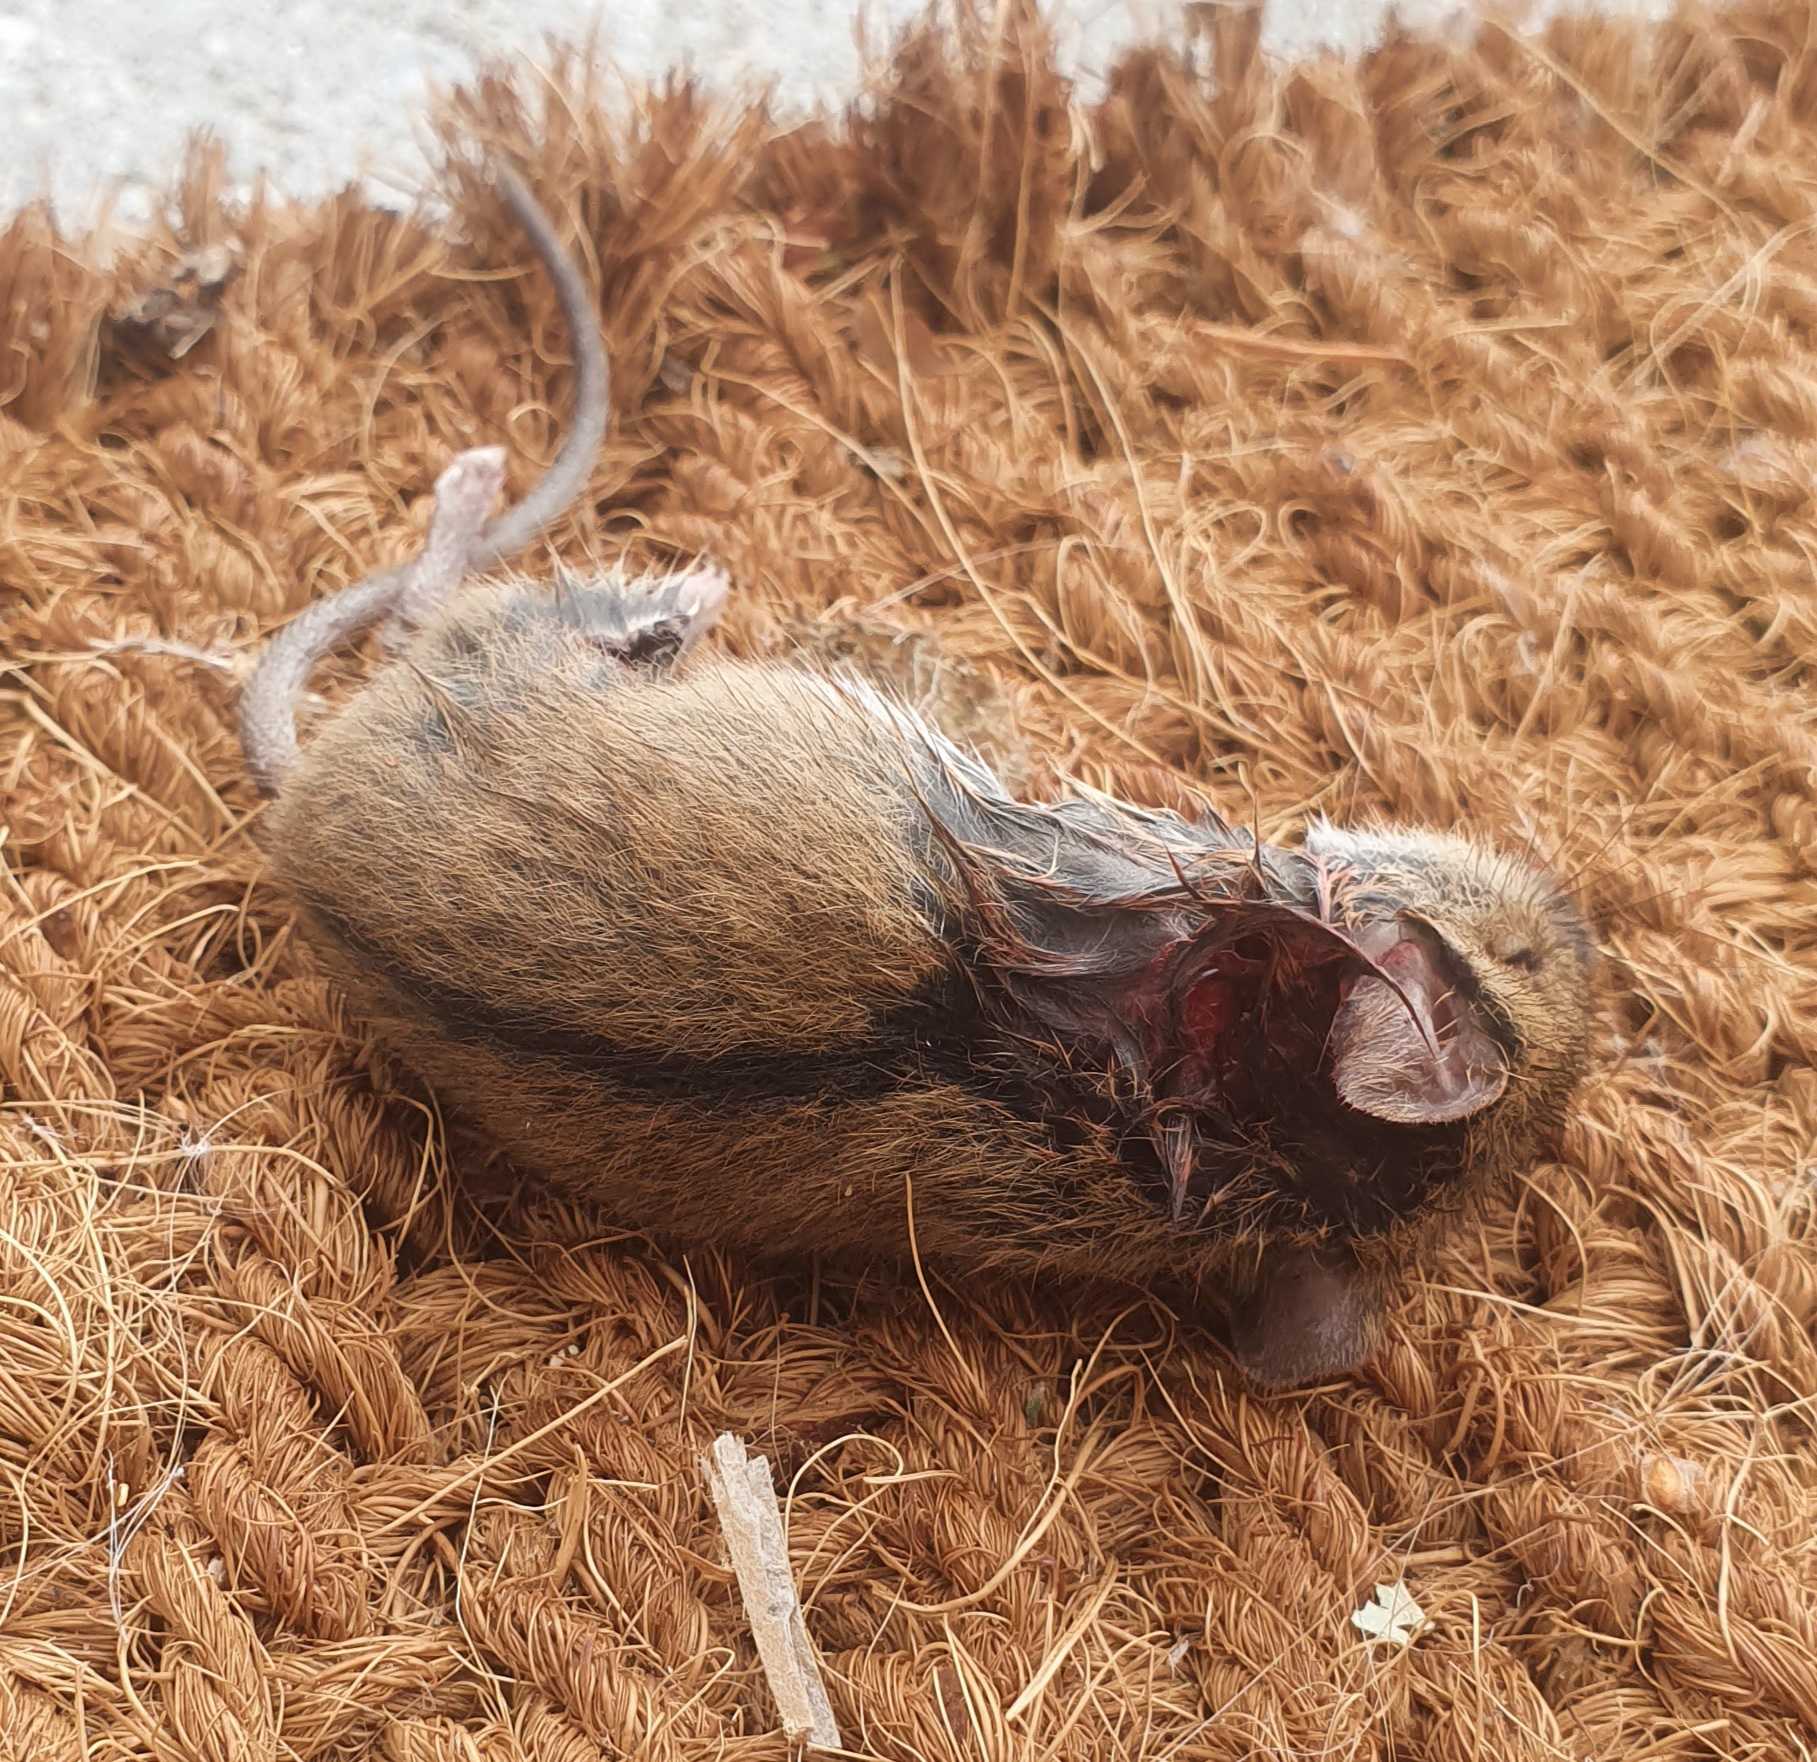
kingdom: Animalia
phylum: Chordata
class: Mammalia
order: Rodentia
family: Muridae
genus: Apodemus
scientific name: Apodemus agrarius
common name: Brandmus
